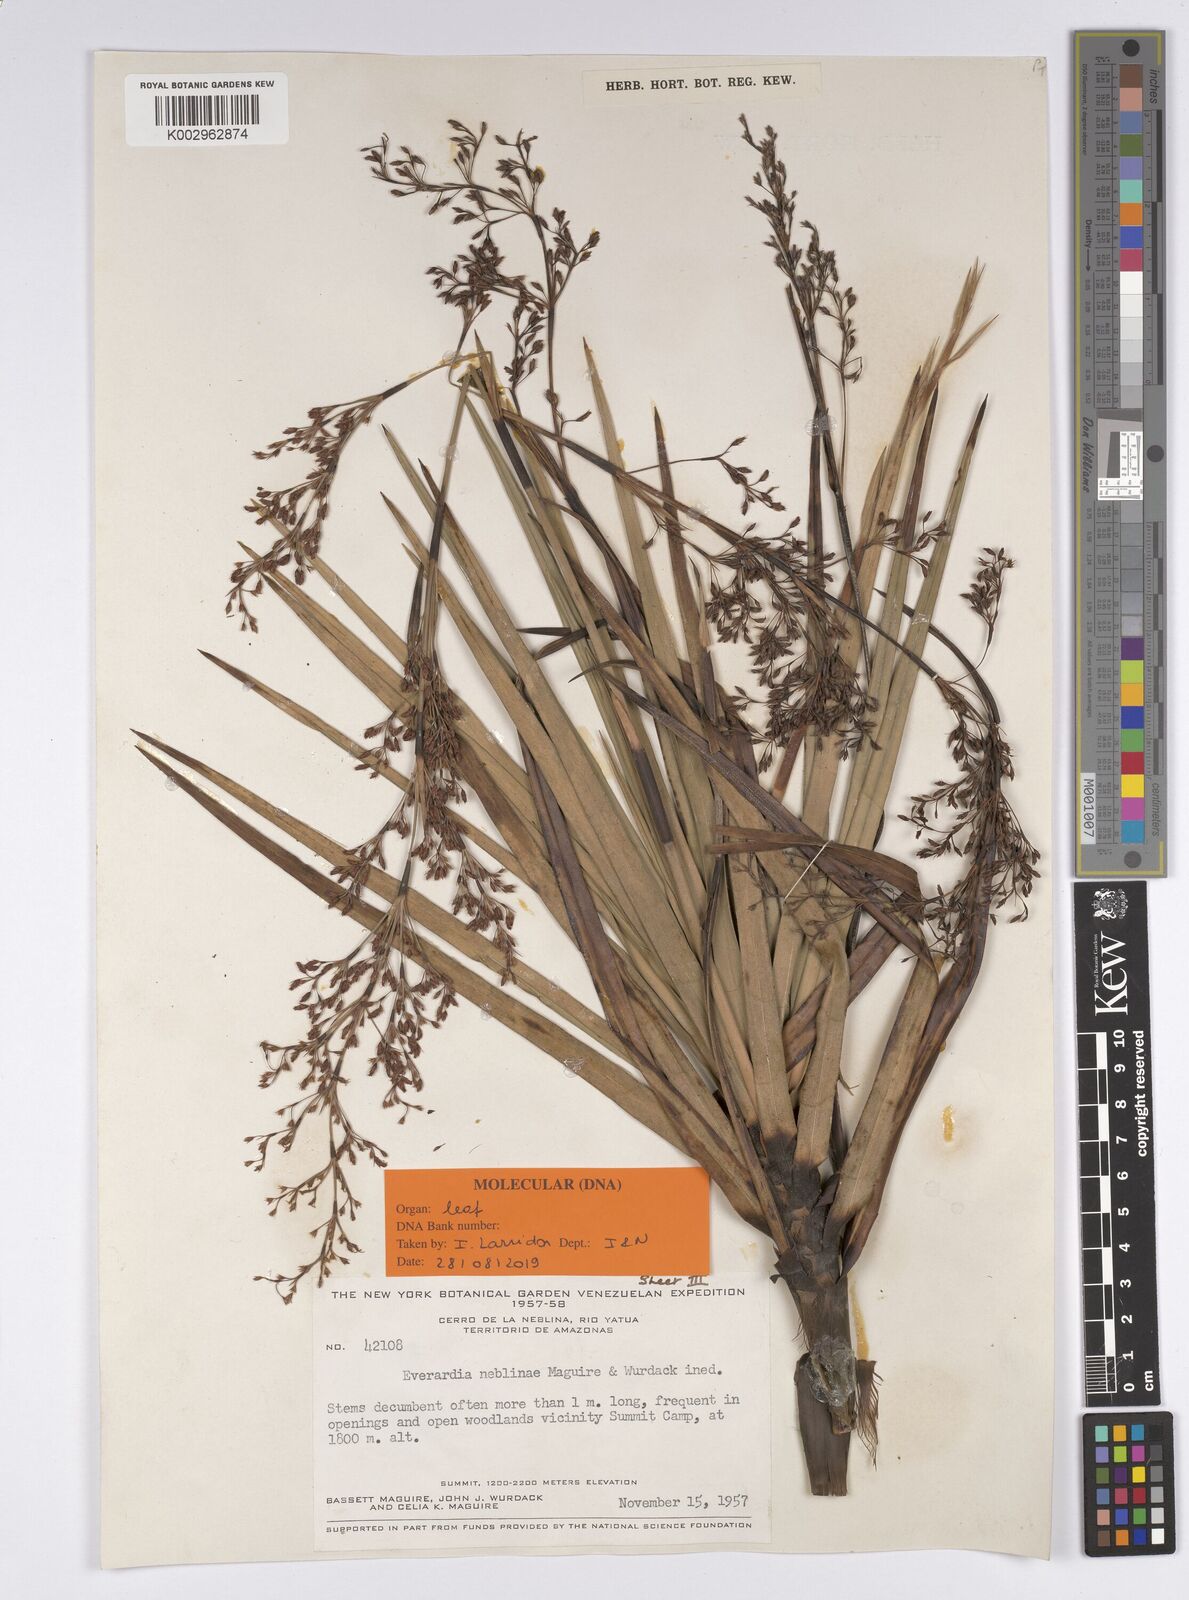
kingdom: Plantae
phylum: Tracheophyta
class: Liliopsida
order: Poales
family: Cyperaceae
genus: Everardia
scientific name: Everardia
